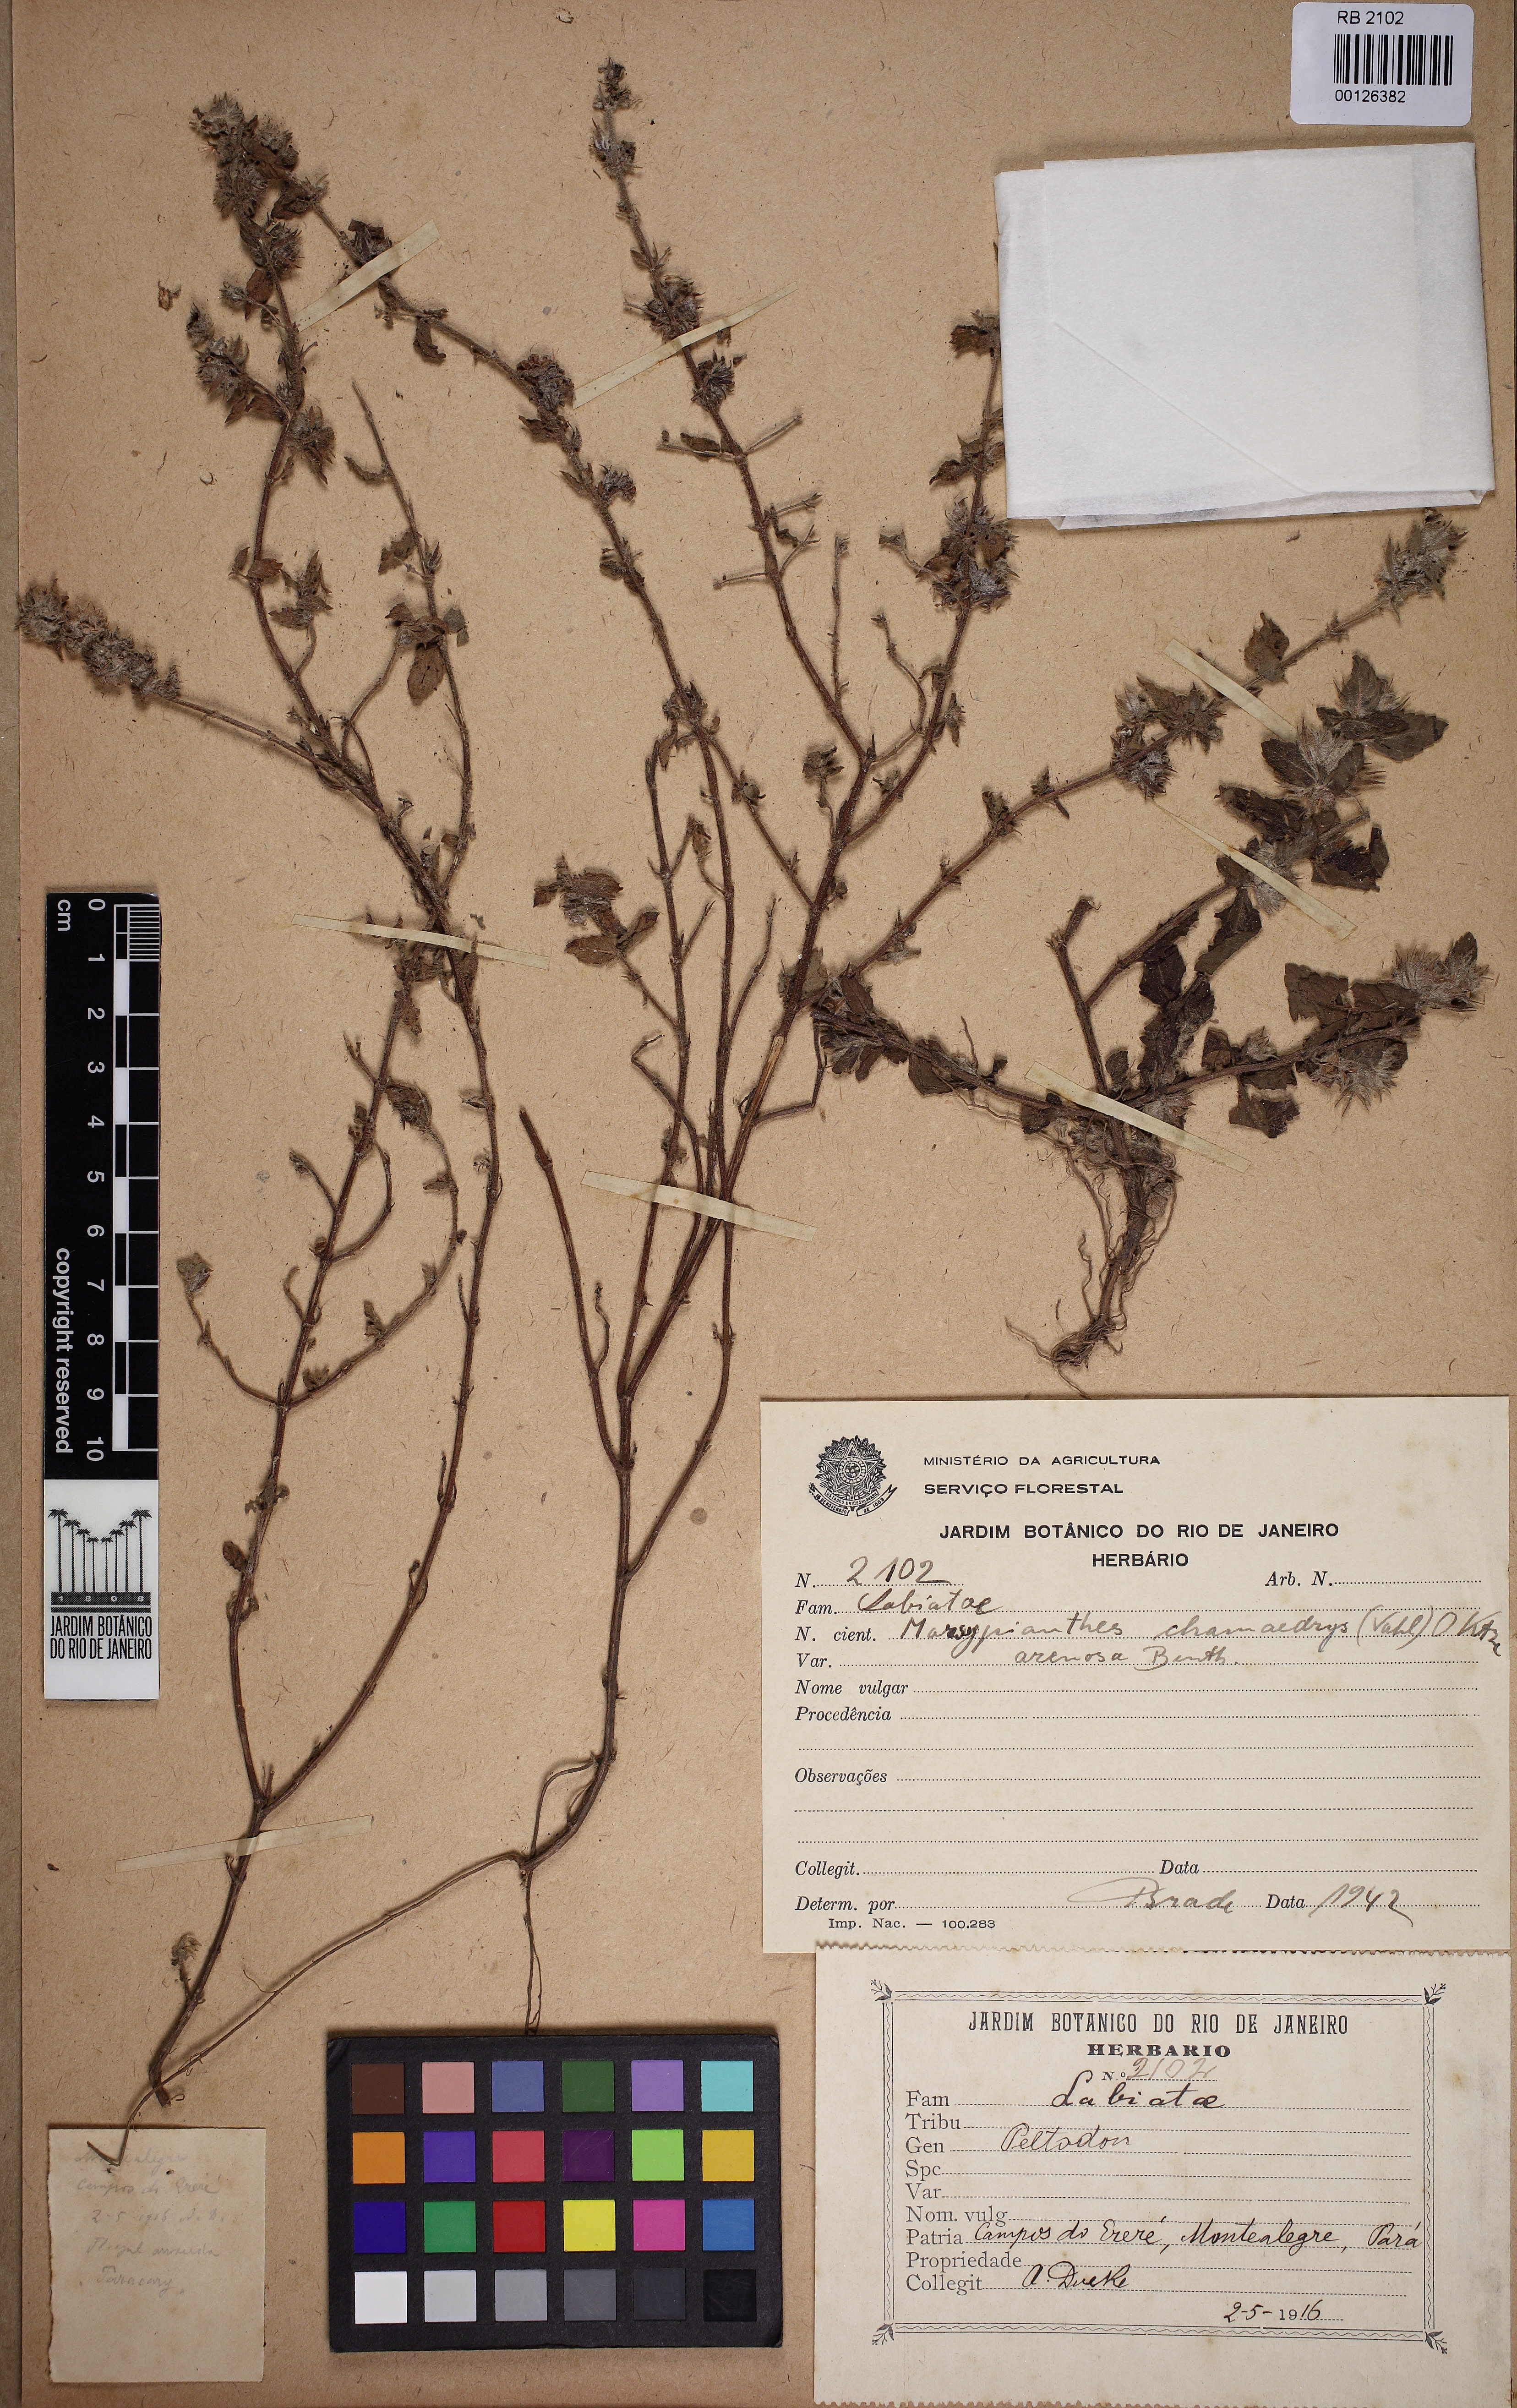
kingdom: Plantae
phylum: Tracheophyta
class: Magnoliopsida
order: Lamiales
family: Lamiaceae
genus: Marsypianthes
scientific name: Marsypianthes chamaedrys
